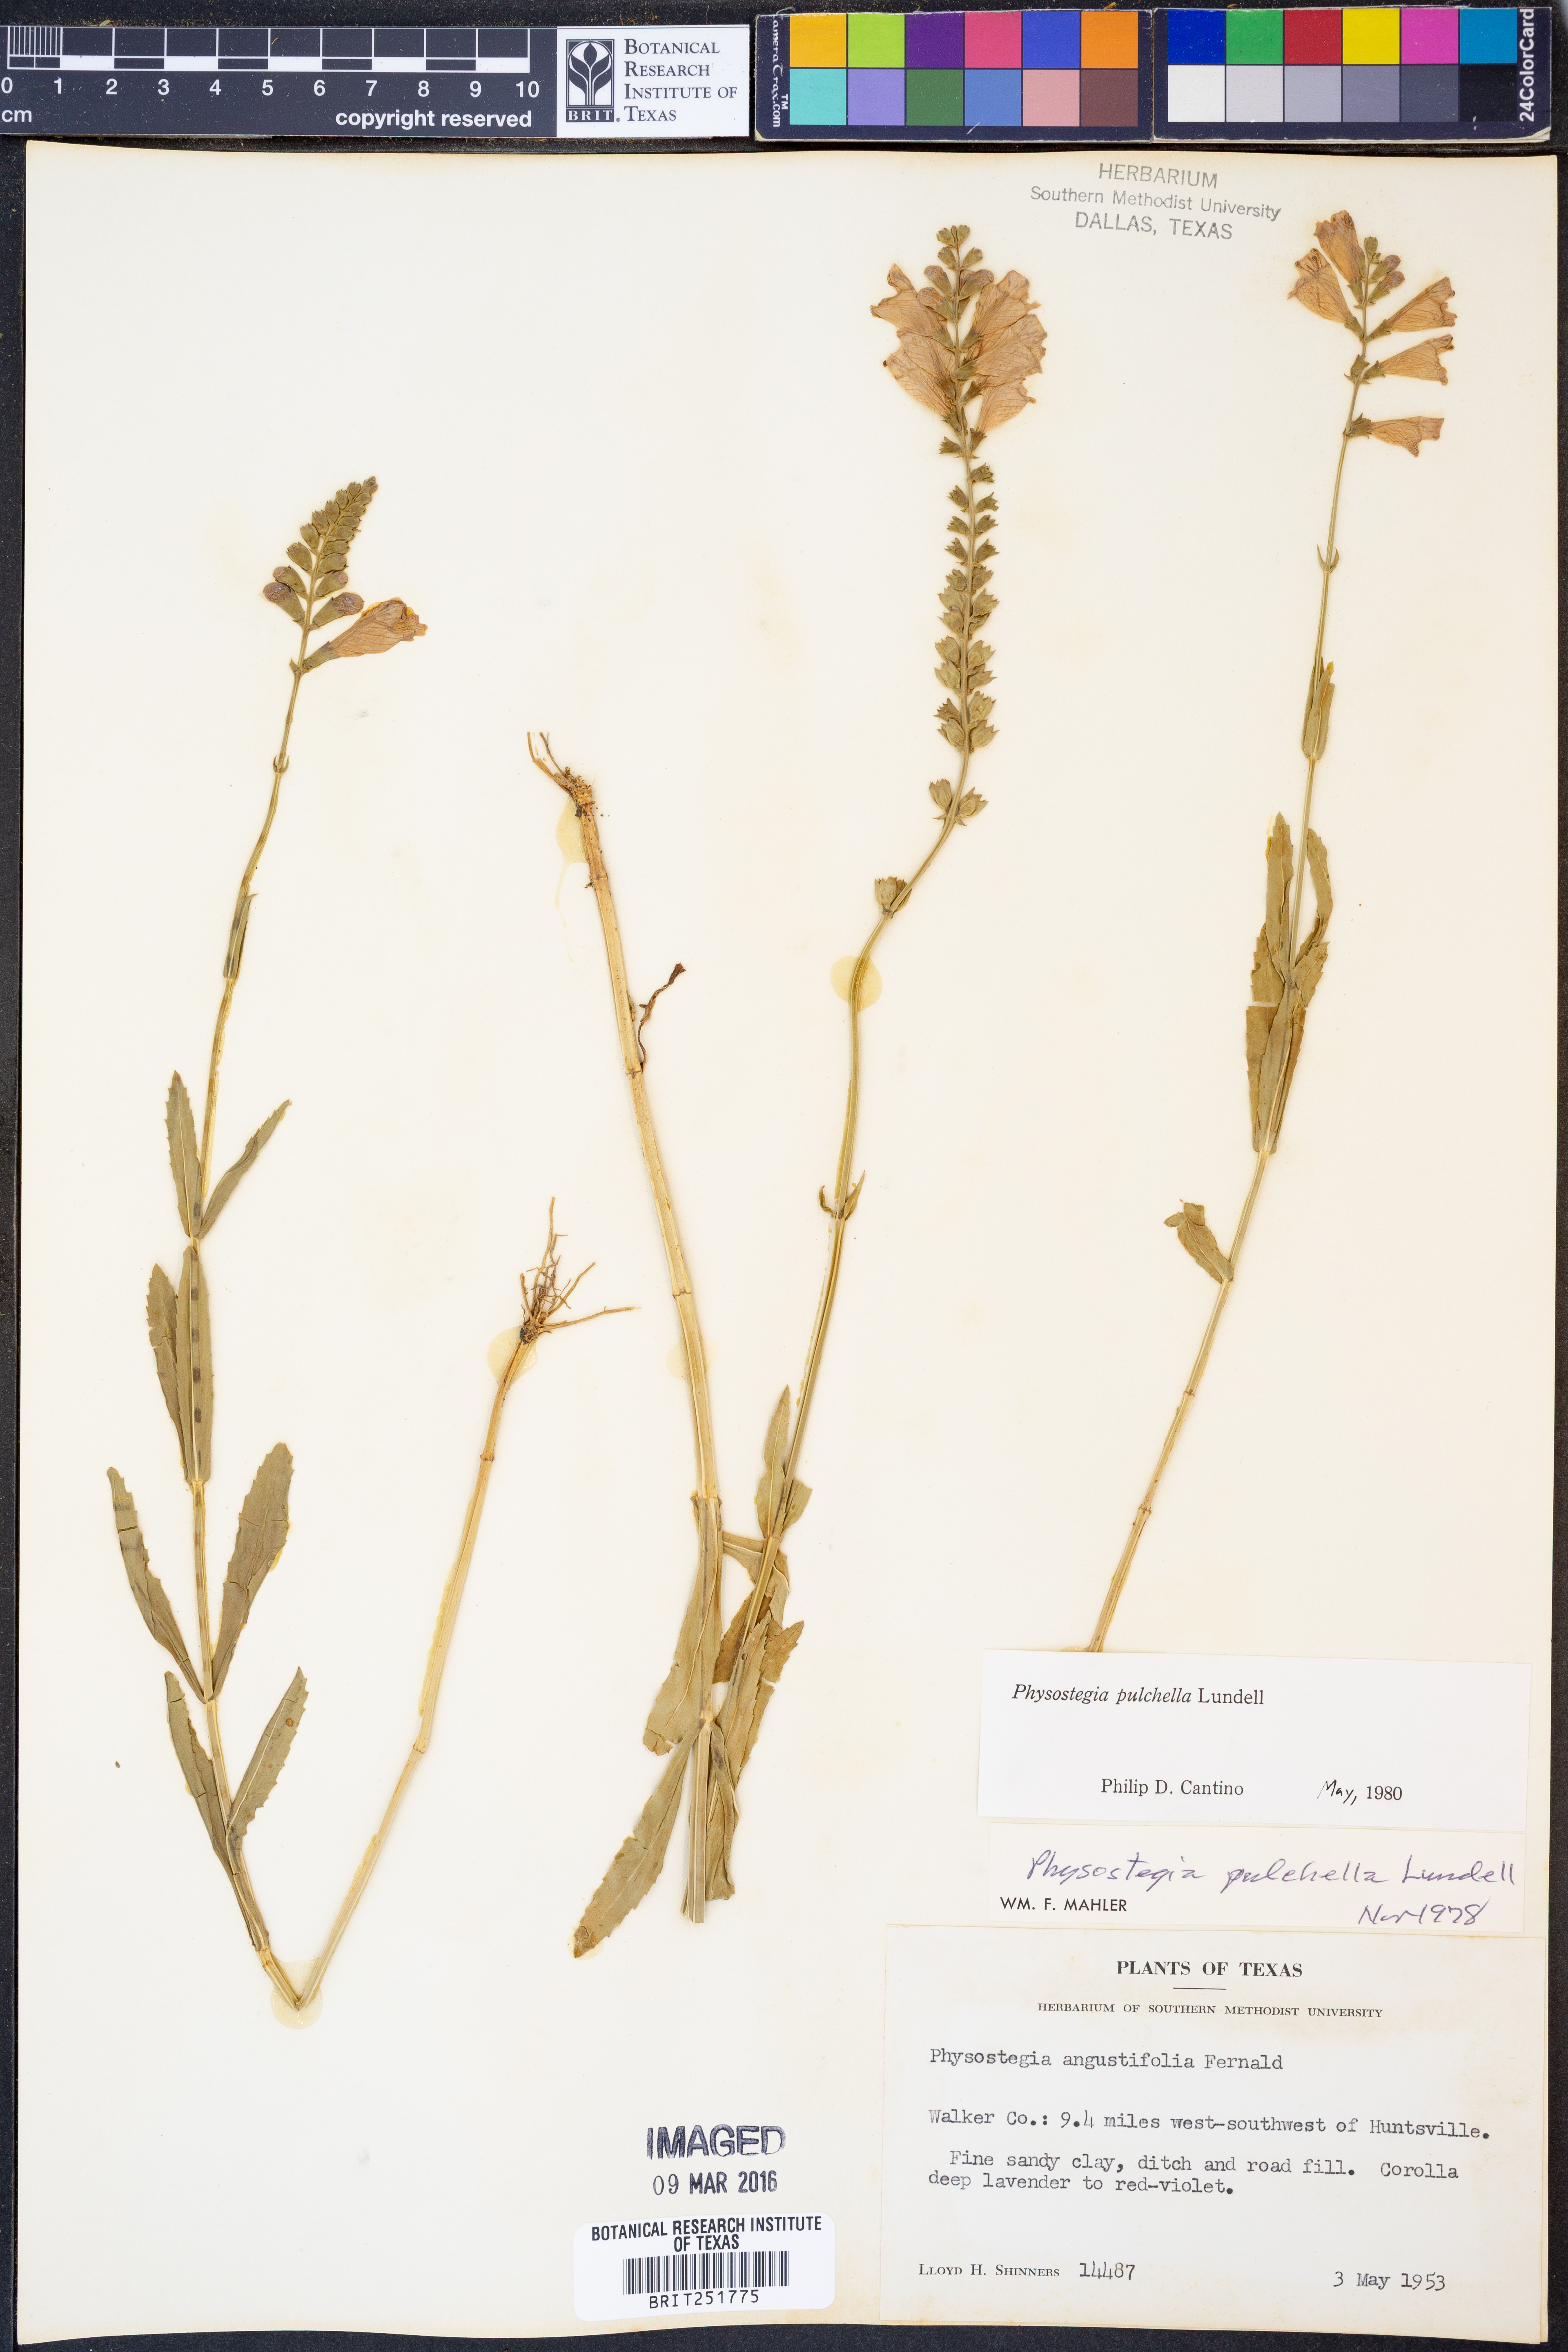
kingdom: Plantae
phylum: Tracheophyta
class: Magnoliopsida
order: Lamiales
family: Lamiaceae
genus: Physostegia
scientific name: Physostegia pulchella
